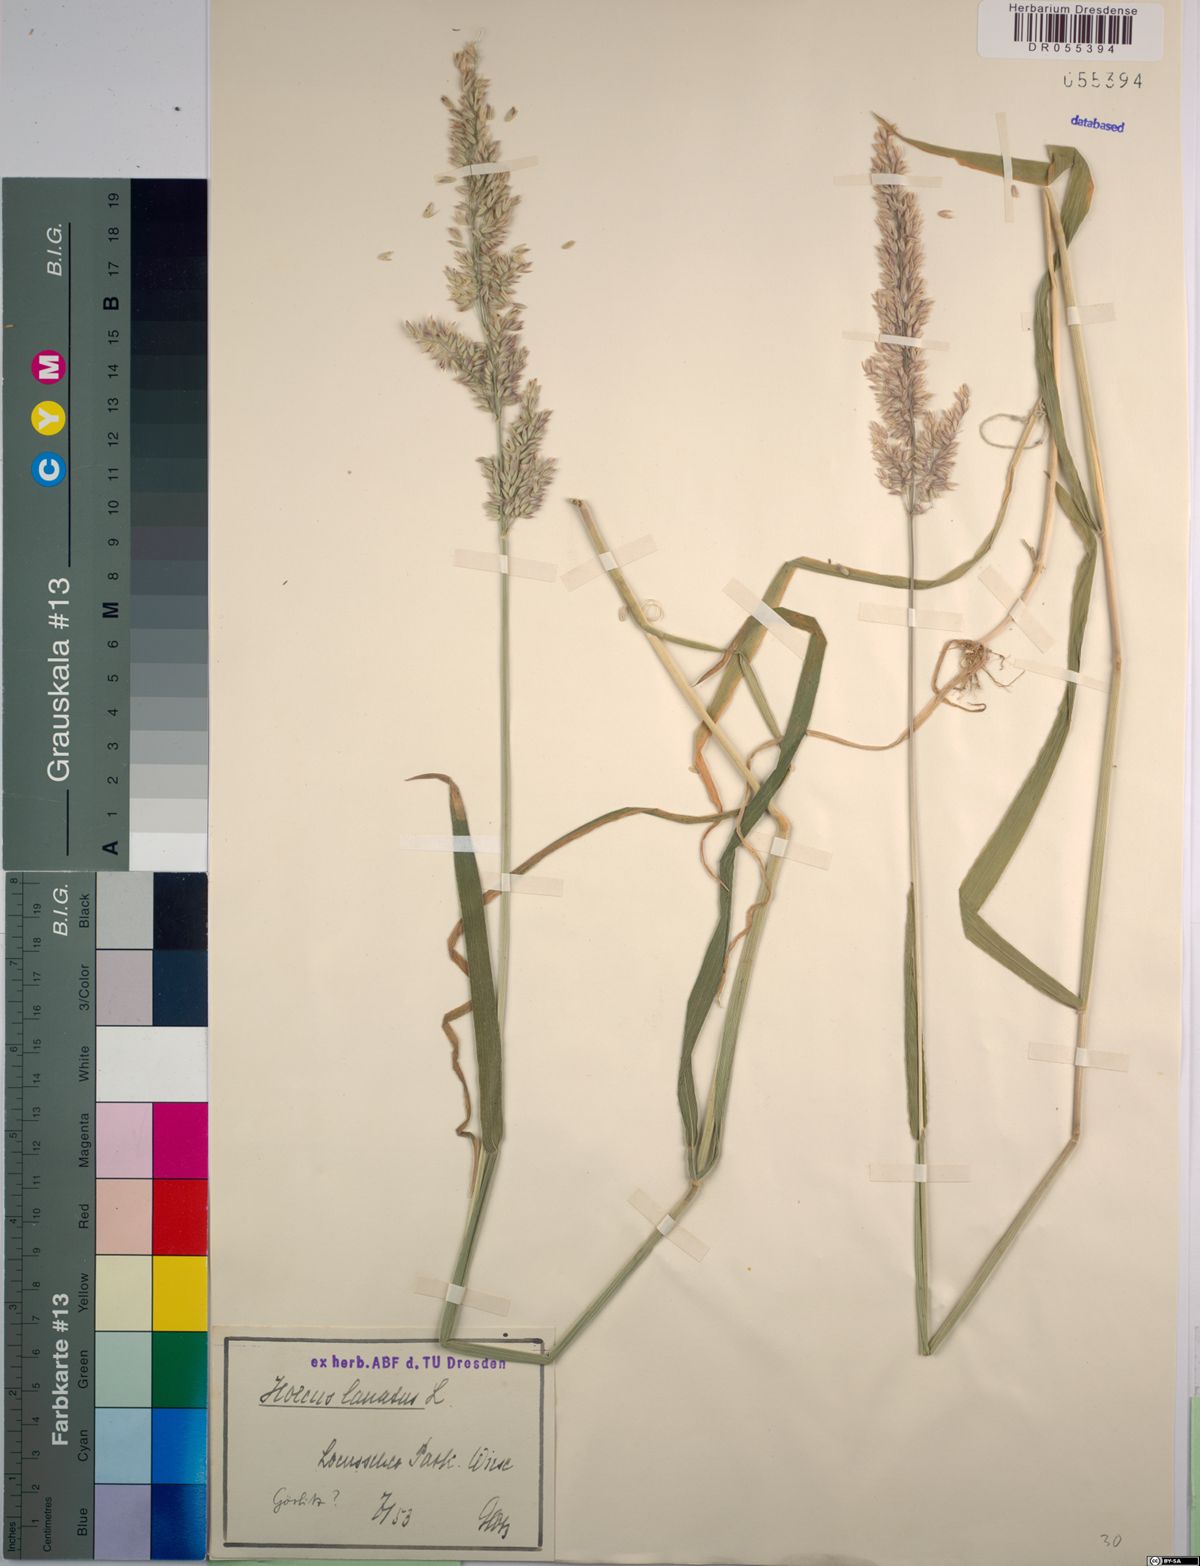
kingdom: Plantae
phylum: Tracheophyta
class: Liliopsida
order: Poales
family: Poaceae
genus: Holcus
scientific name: Holcus lanatus
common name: Yorkshire-fog
